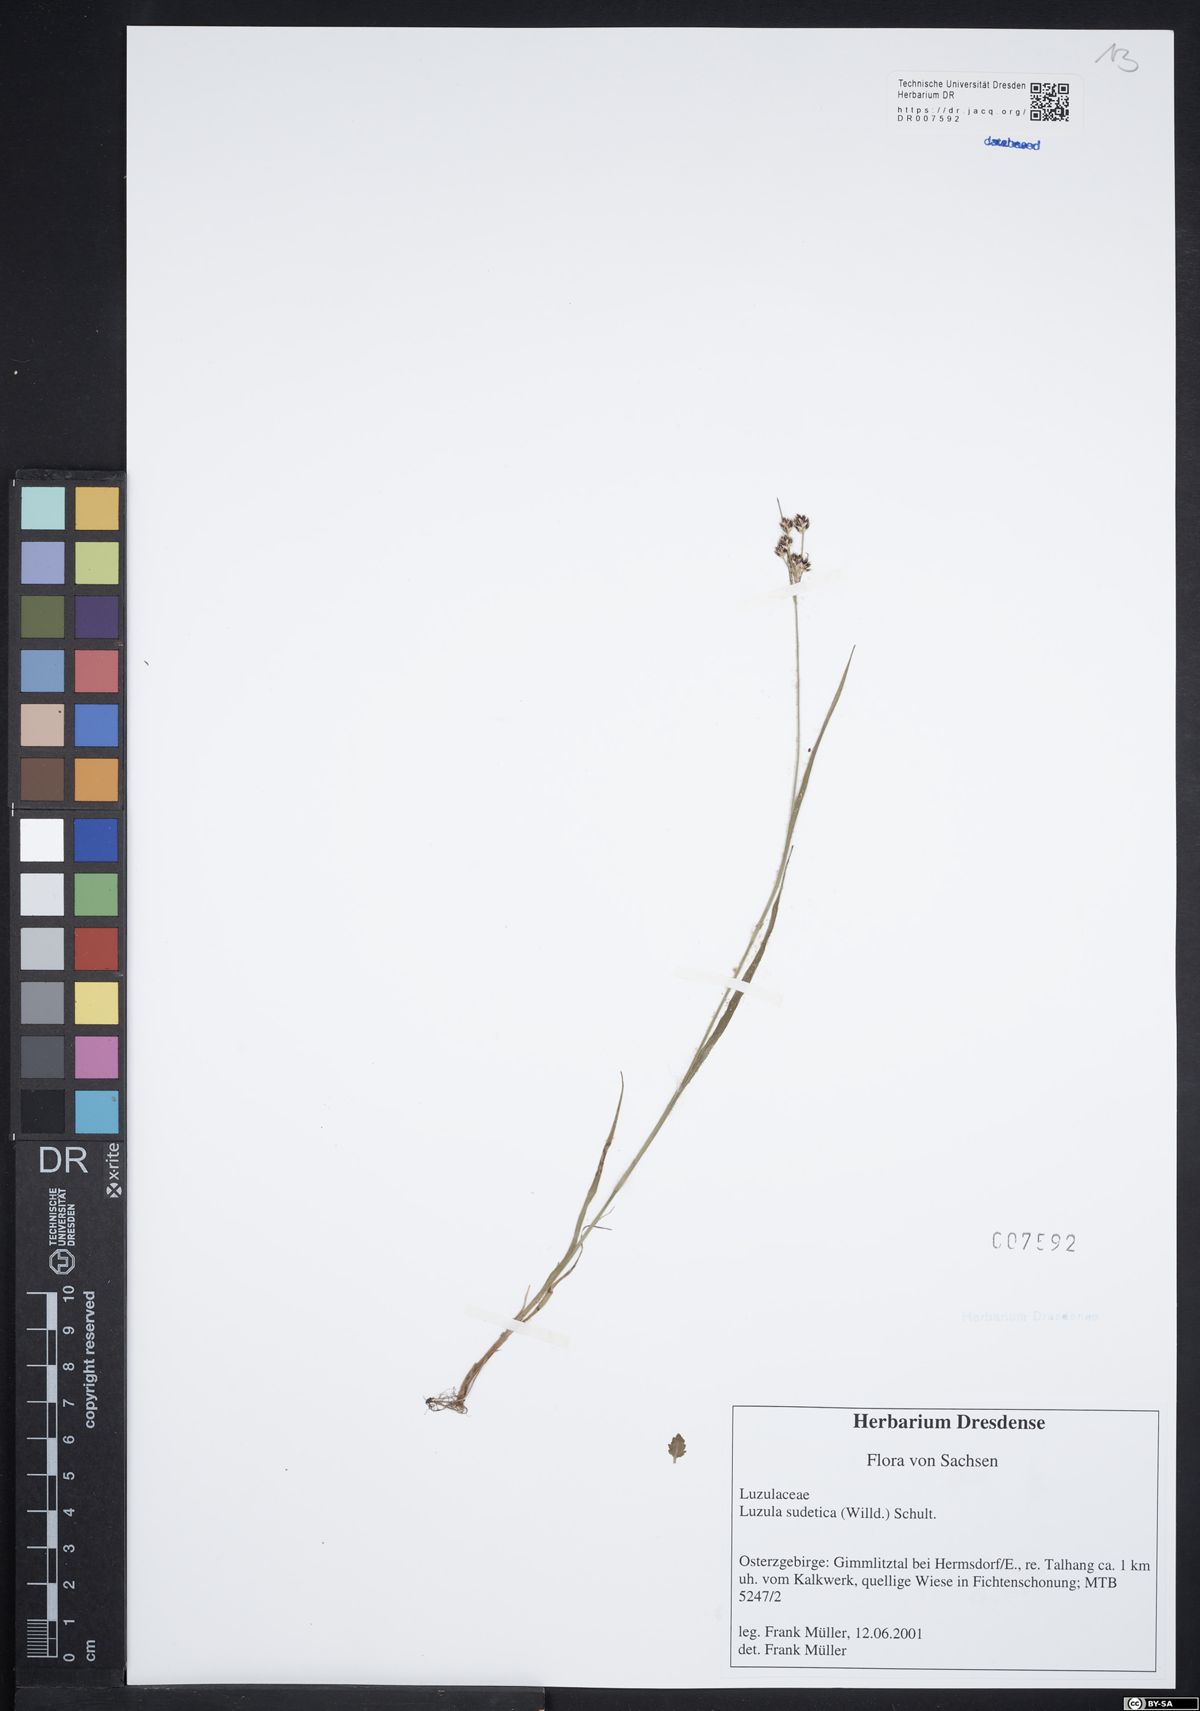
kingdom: Plantae
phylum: Tracheophyta
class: Liliopsida
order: Poales
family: Juncaceae
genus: Luzula
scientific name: Luzula sudetica
